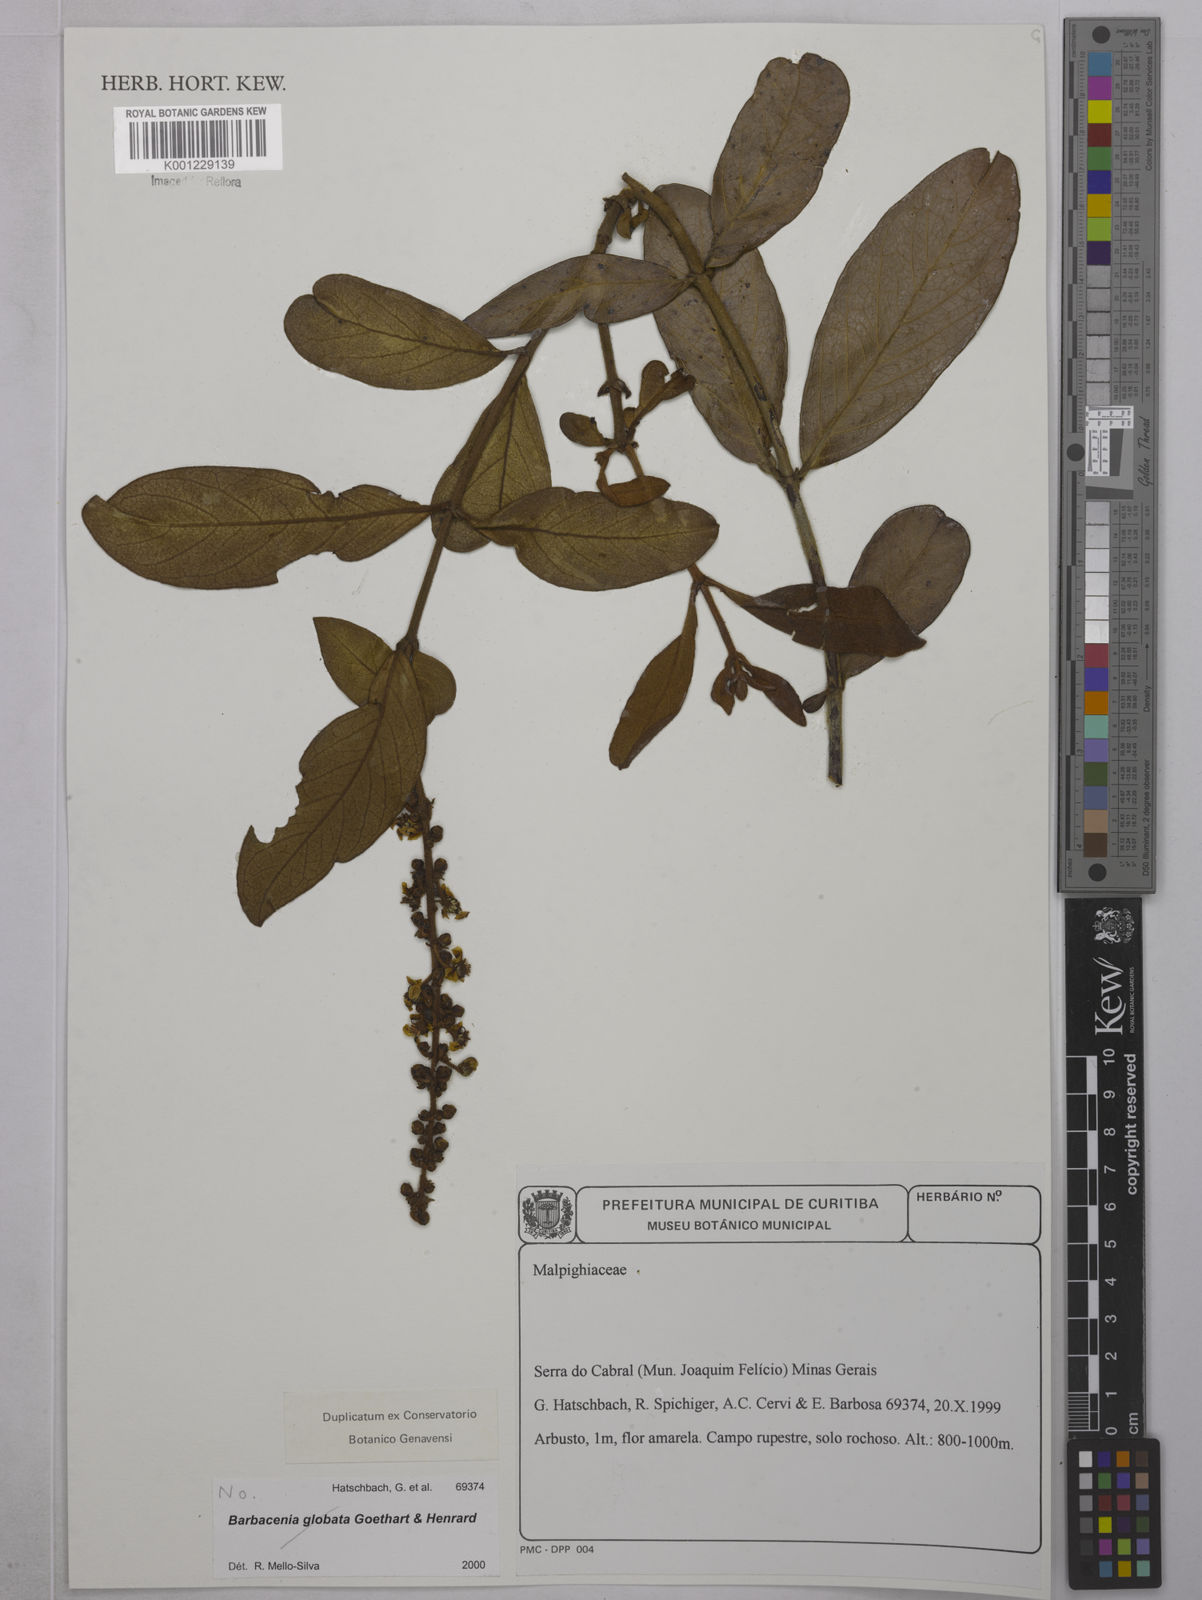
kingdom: Plantae
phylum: Tracheophyta
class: Magnoliopsida
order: Malpighiales
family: Malpighiaceae
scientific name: Malpighiaceae
